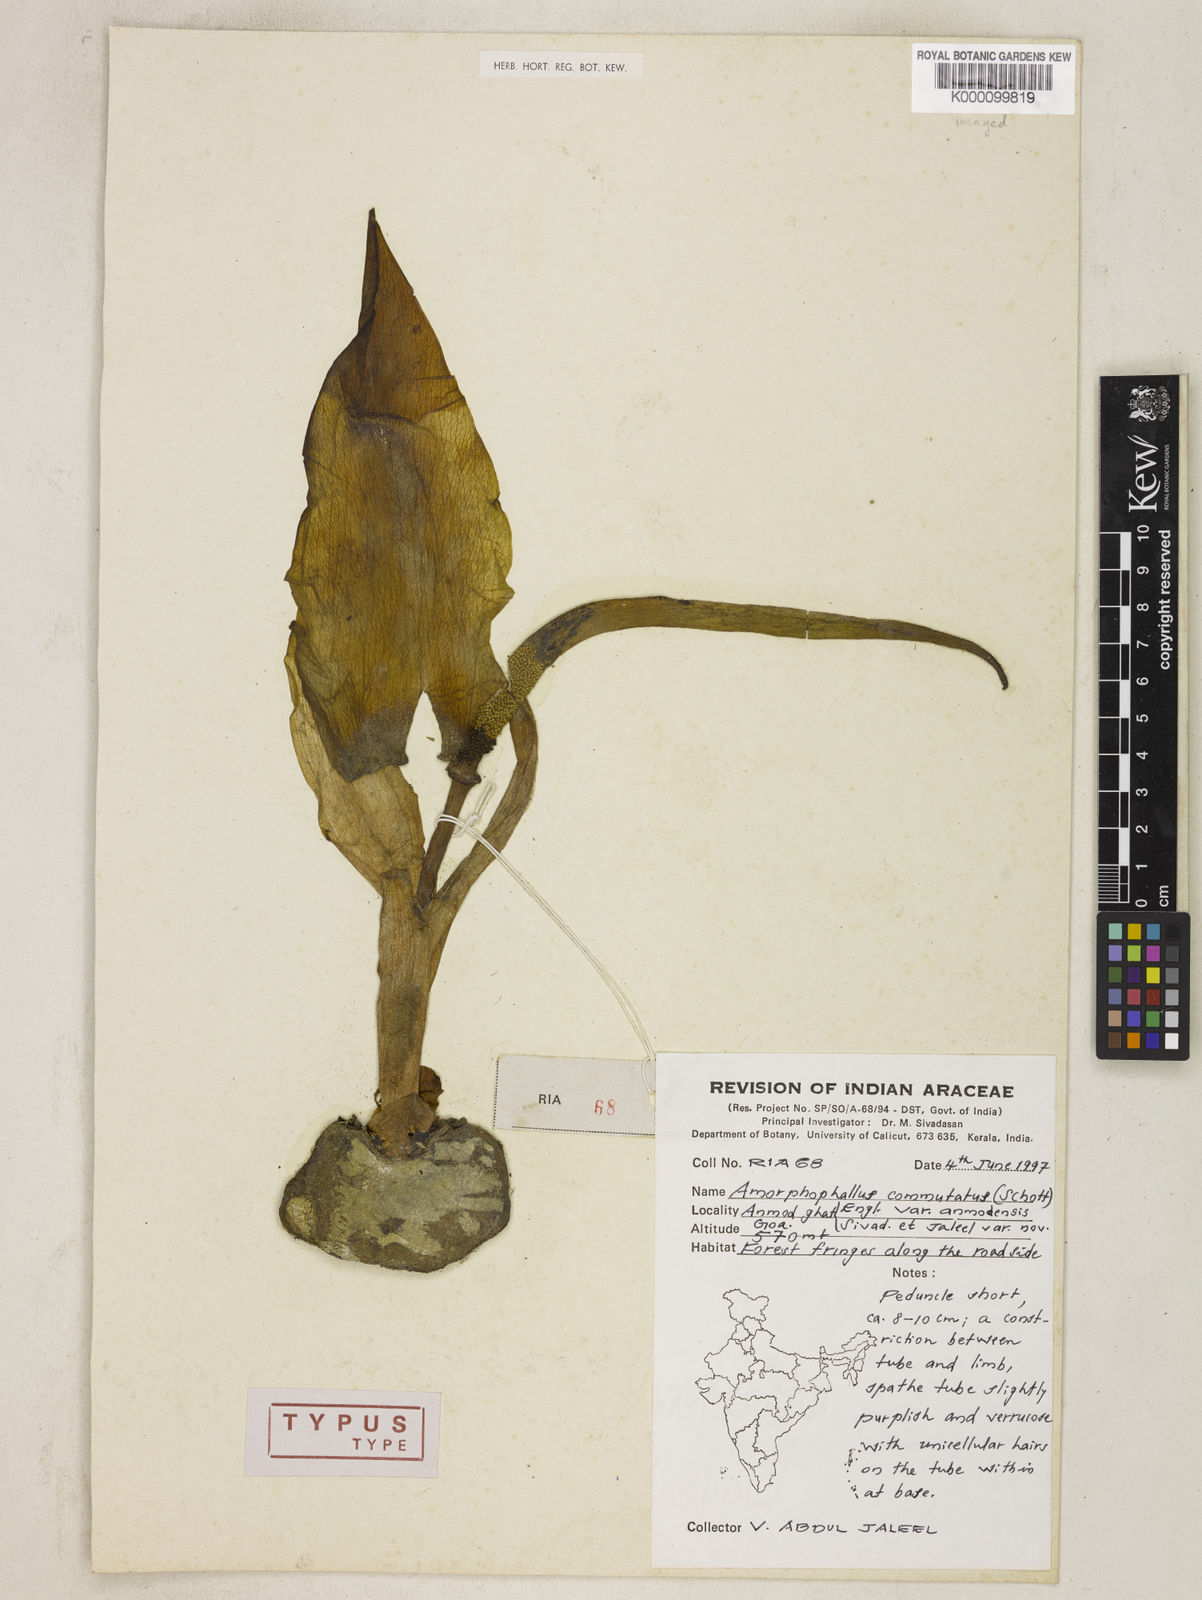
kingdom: Plantae
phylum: Tracheophyta
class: Liliopsida
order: Alismatales
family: Araceae
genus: Amorphophallus
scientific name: Amorphophallus commutatus
